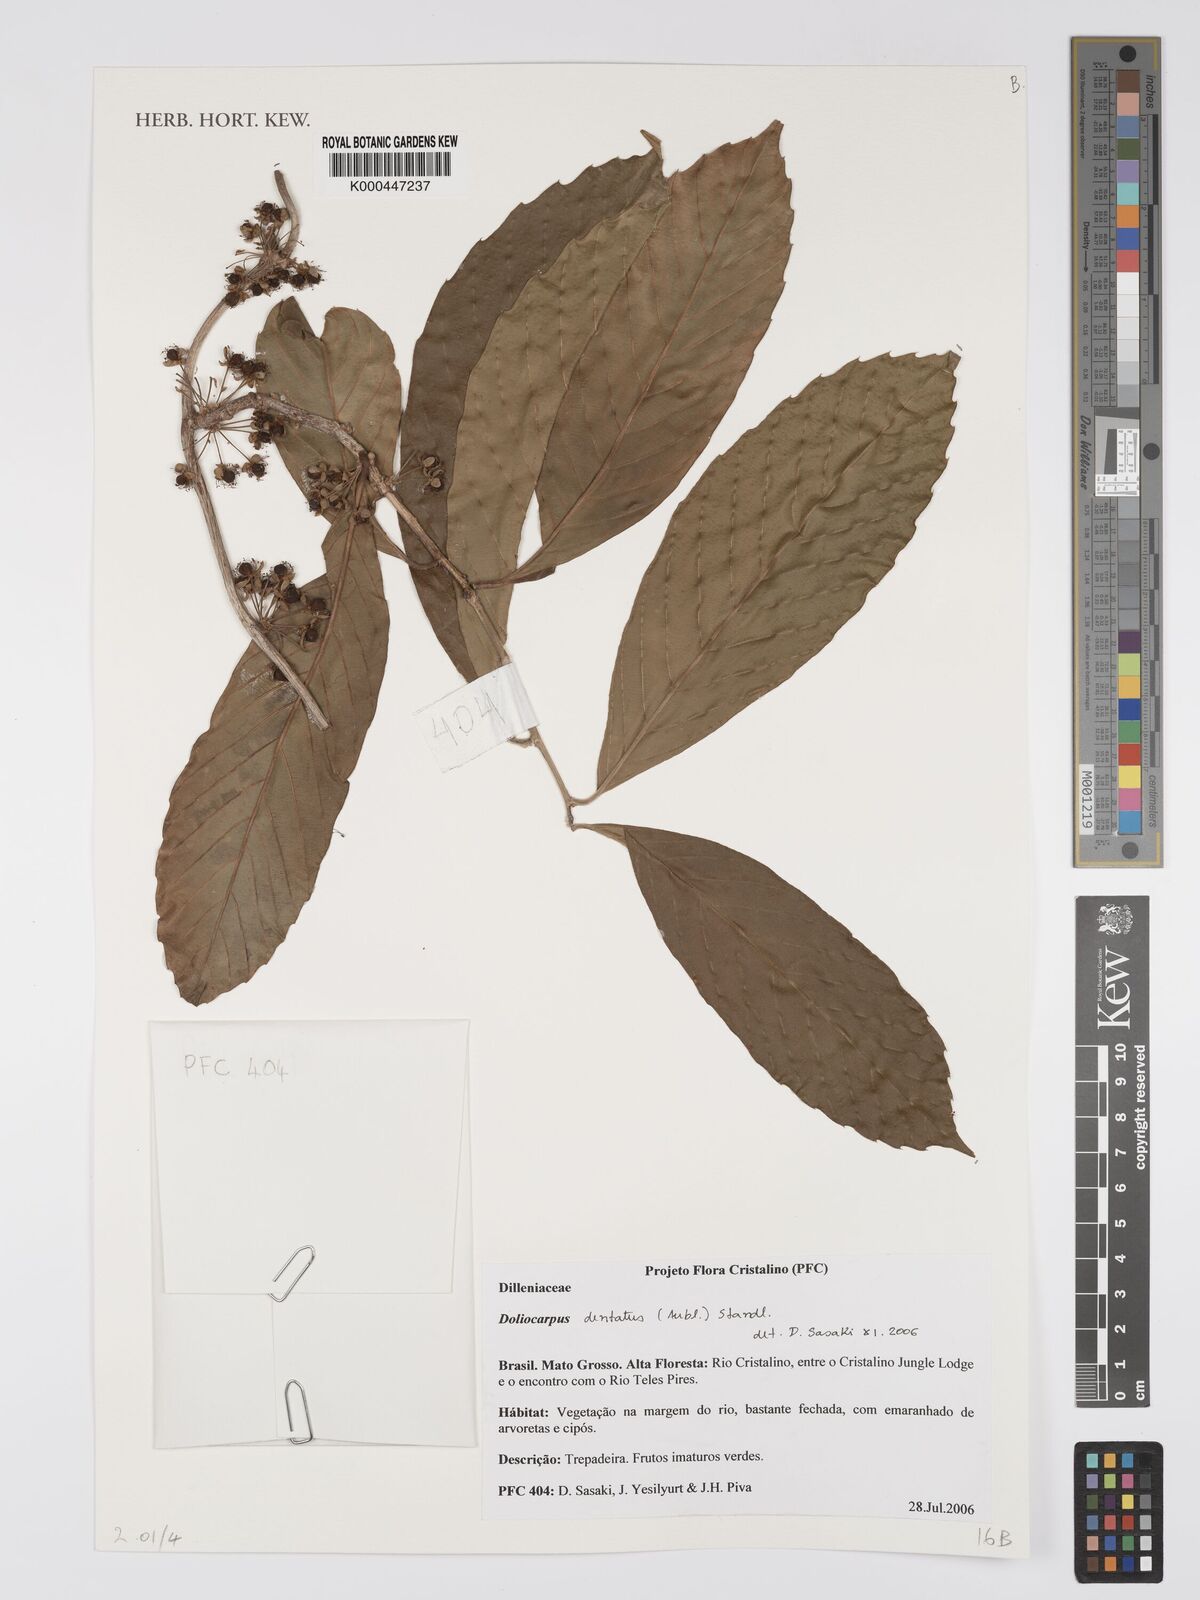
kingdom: Plantae
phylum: Tracheophyta
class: Magnoliopsida
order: Dilleniales
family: Dilleniaceae
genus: Doliocarpus
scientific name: Doliocarpus dentatus
